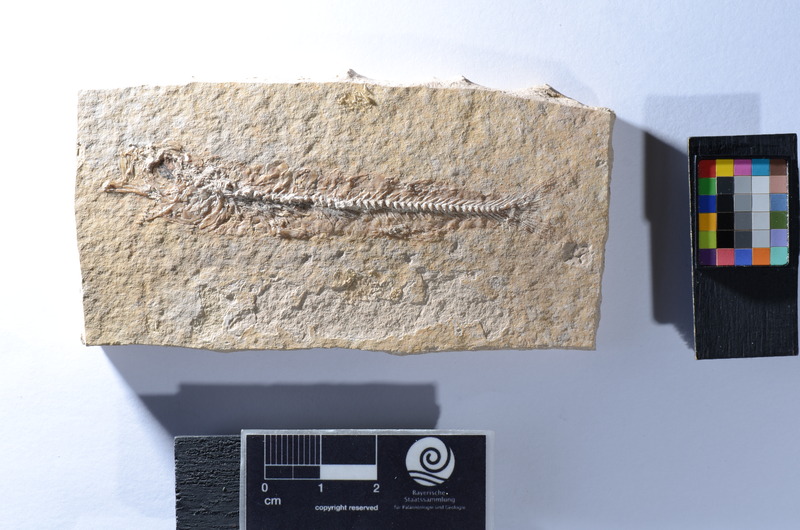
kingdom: Animalia
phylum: Chordata
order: Atheriniformes
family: Atherinidae
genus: Atherina
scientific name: Atherina
